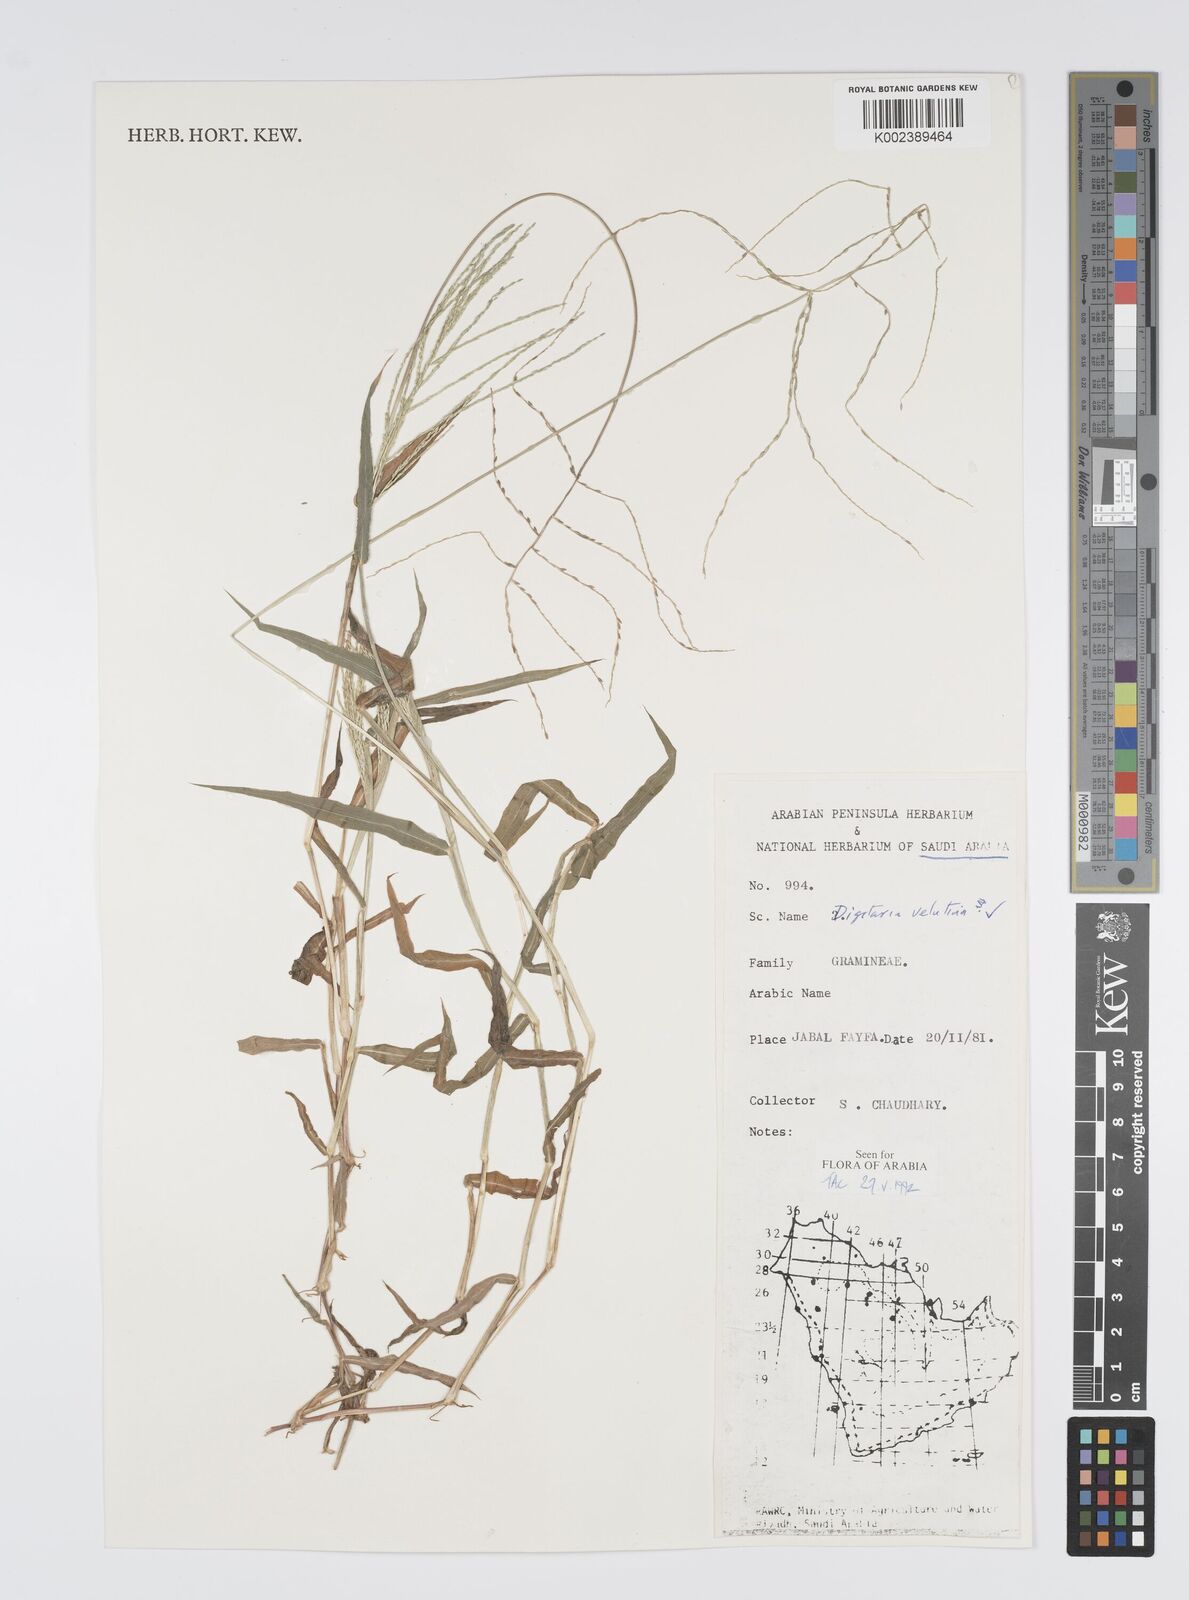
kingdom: Plantae
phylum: Tracheophyta
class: Liliopsida
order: Poales
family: Poaceae
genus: Digitaria
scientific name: Digitaria spec
